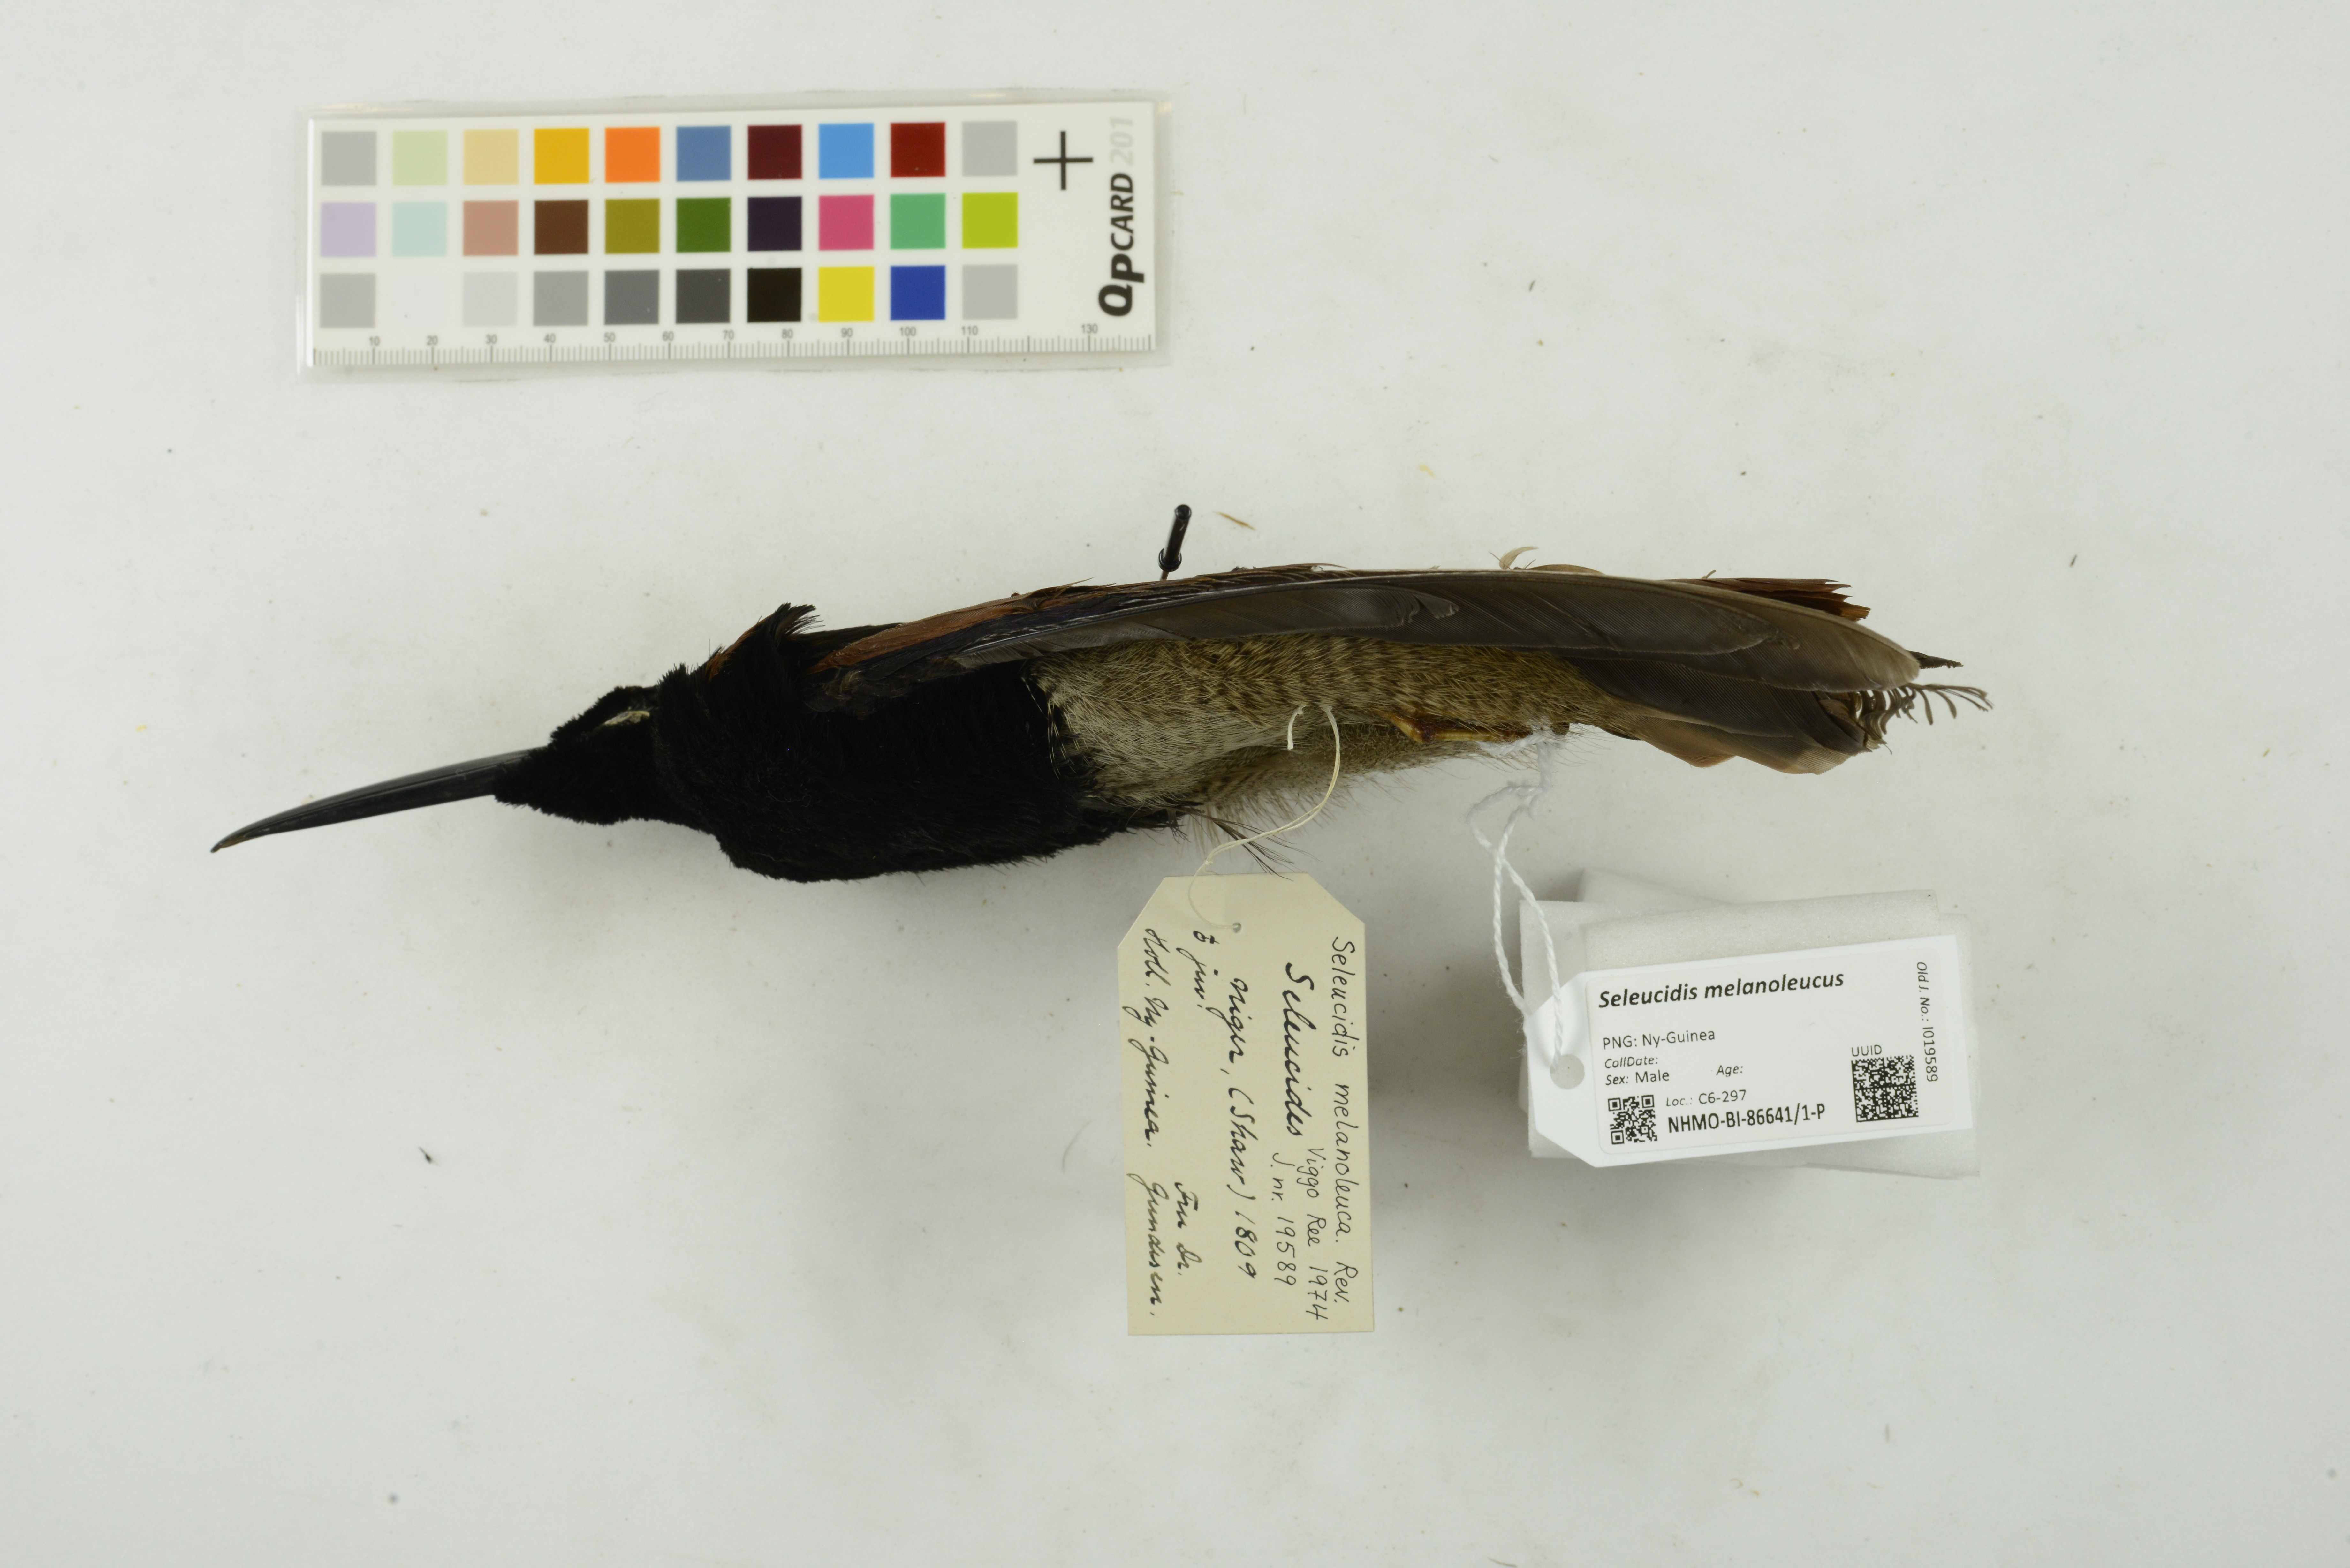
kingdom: Animalia
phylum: Chordata
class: Aves
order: Passeriformes
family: Paradisaeidae
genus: Seleucidis
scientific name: Seleucidis melanoleucus
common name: Twelve-wired bird-of-paradise
